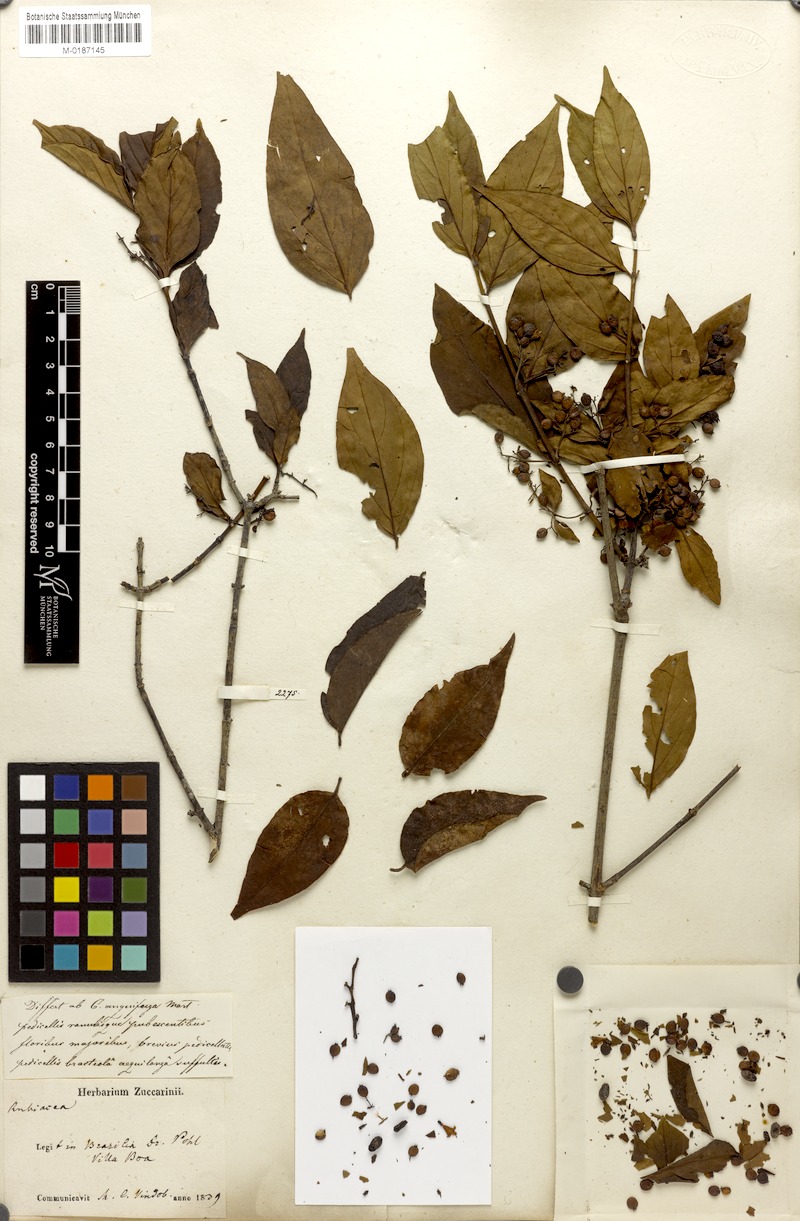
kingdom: Plantae
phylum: Tracheophyta
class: Magnoliopsida
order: Gentianales
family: Rubiaceae
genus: Chiococca
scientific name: Chiococca alba
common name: Snowberry
